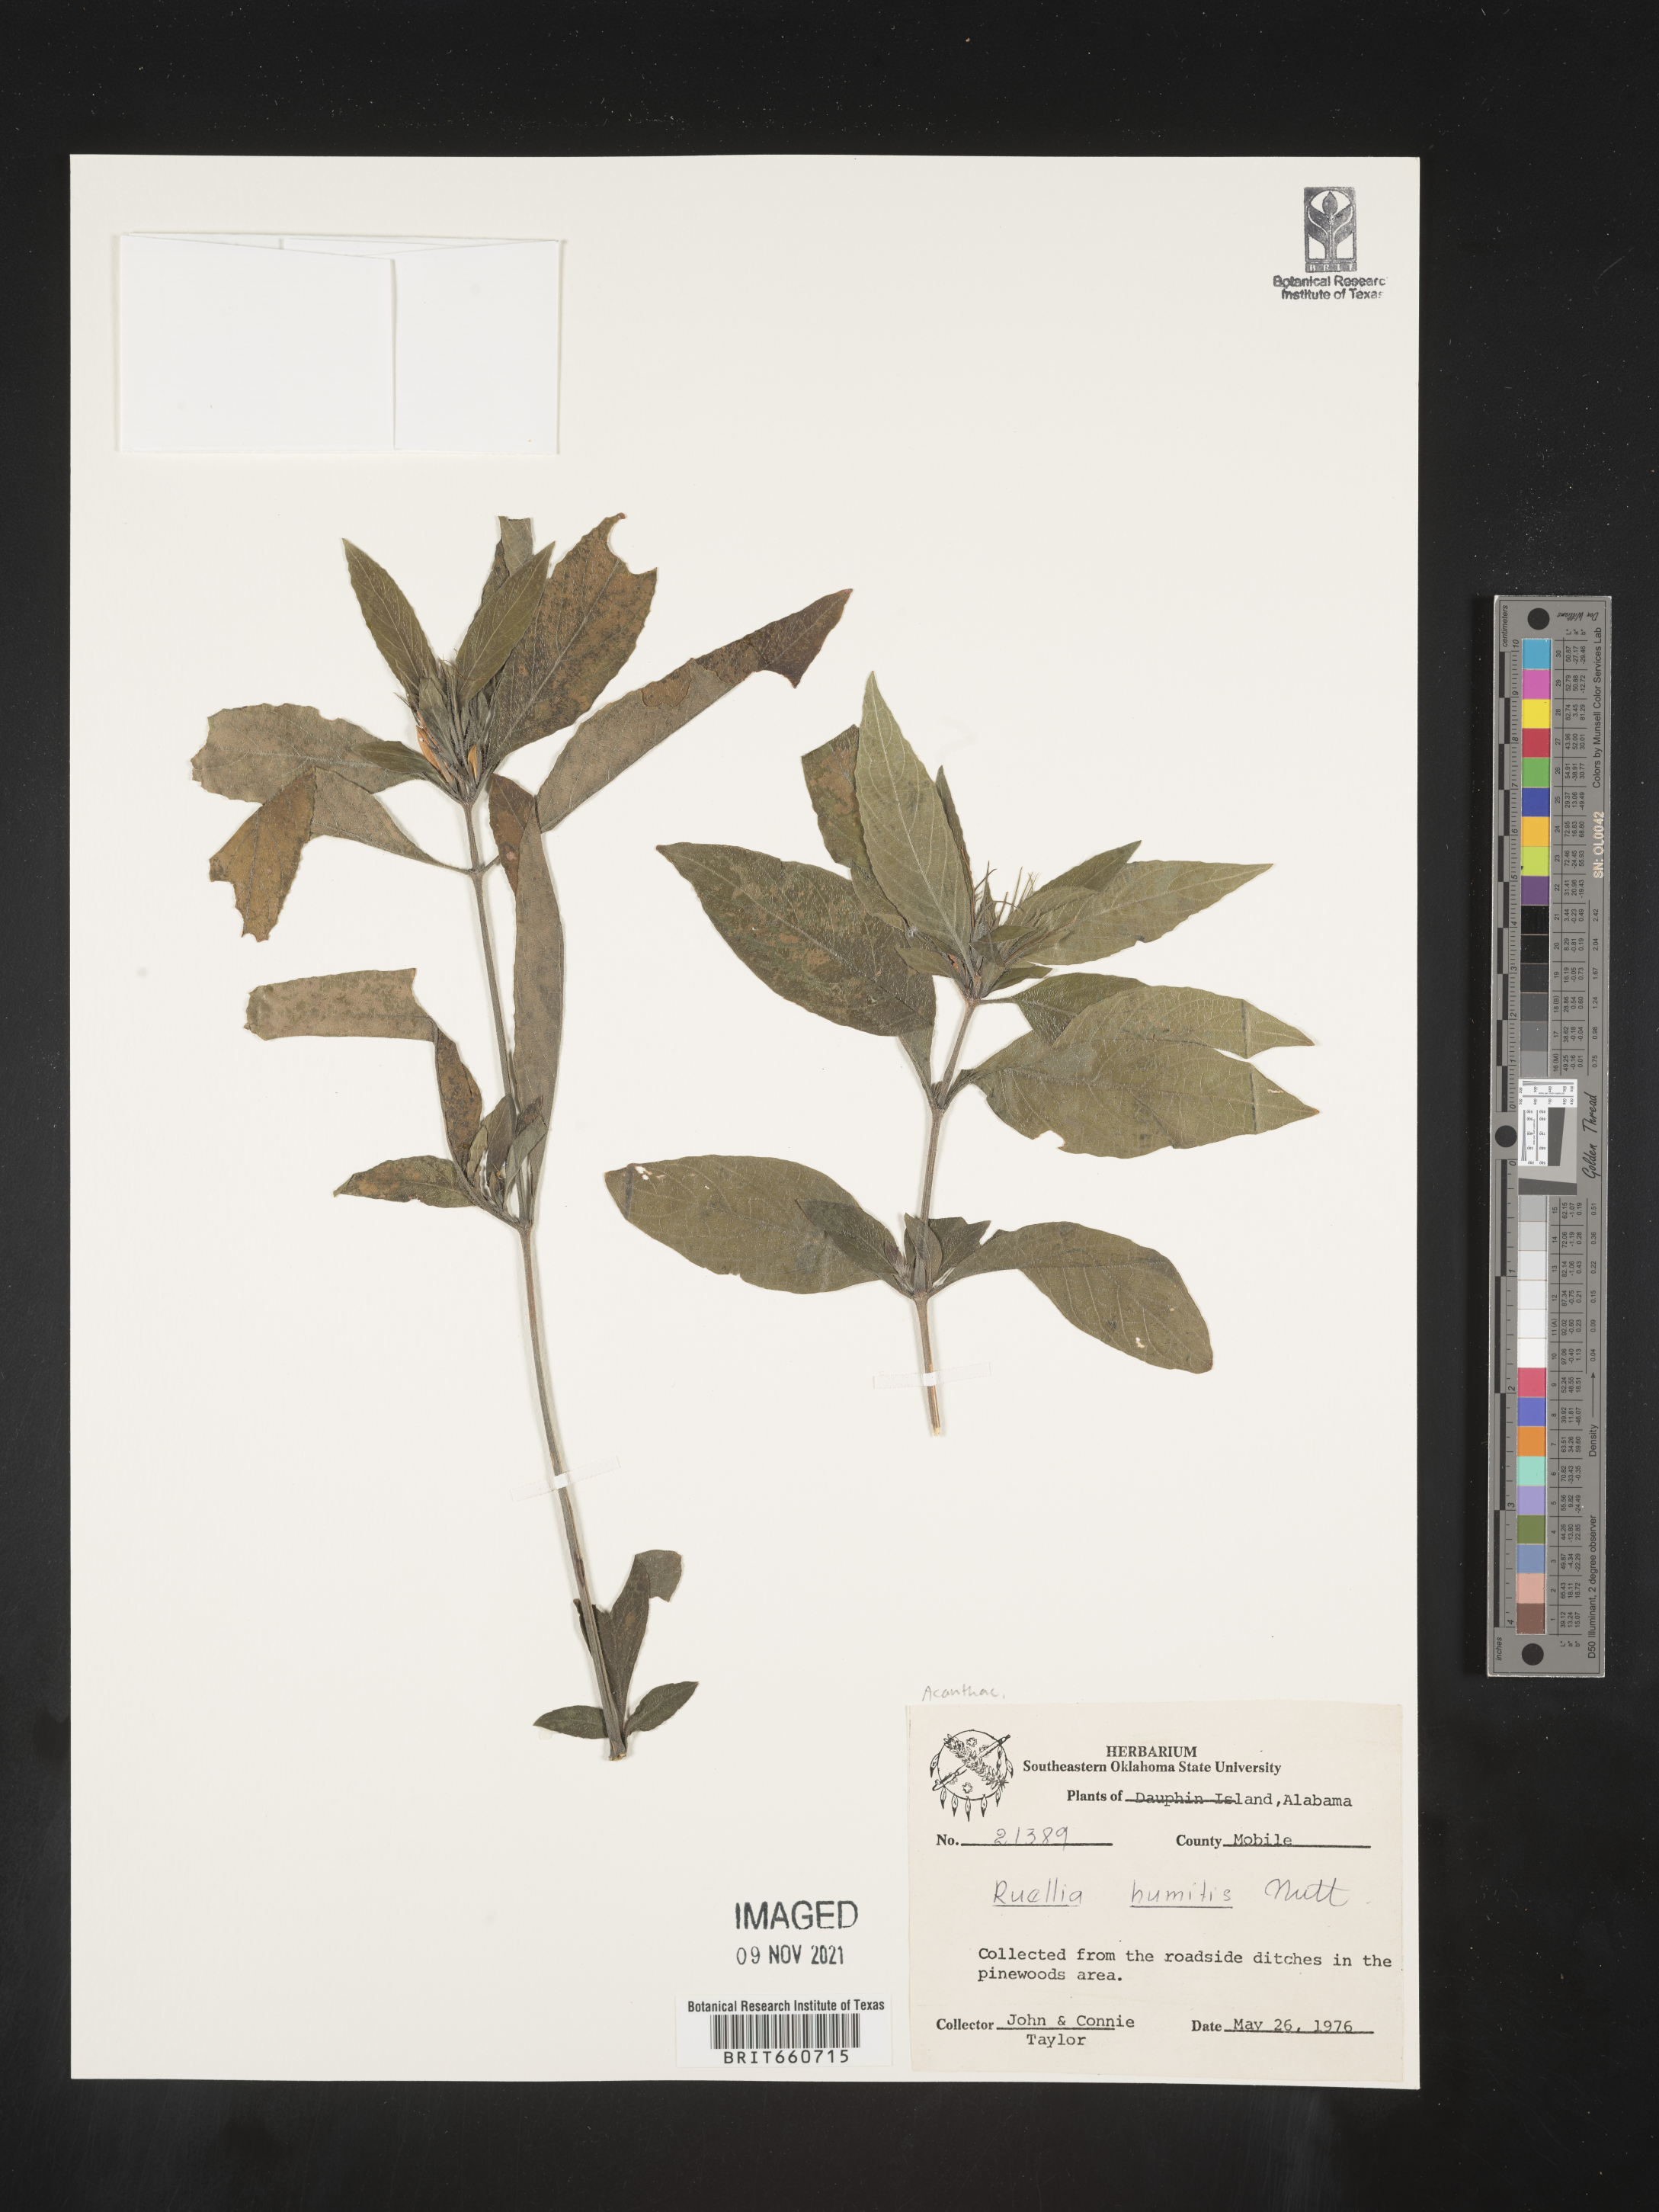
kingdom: Plantae
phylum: Tracheophyta
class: Magnoliopsida
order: Lamiales
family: Acanthaceae
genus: Ruellia
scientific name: Ruellia humilis
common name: Fringe-leaf ruellia
